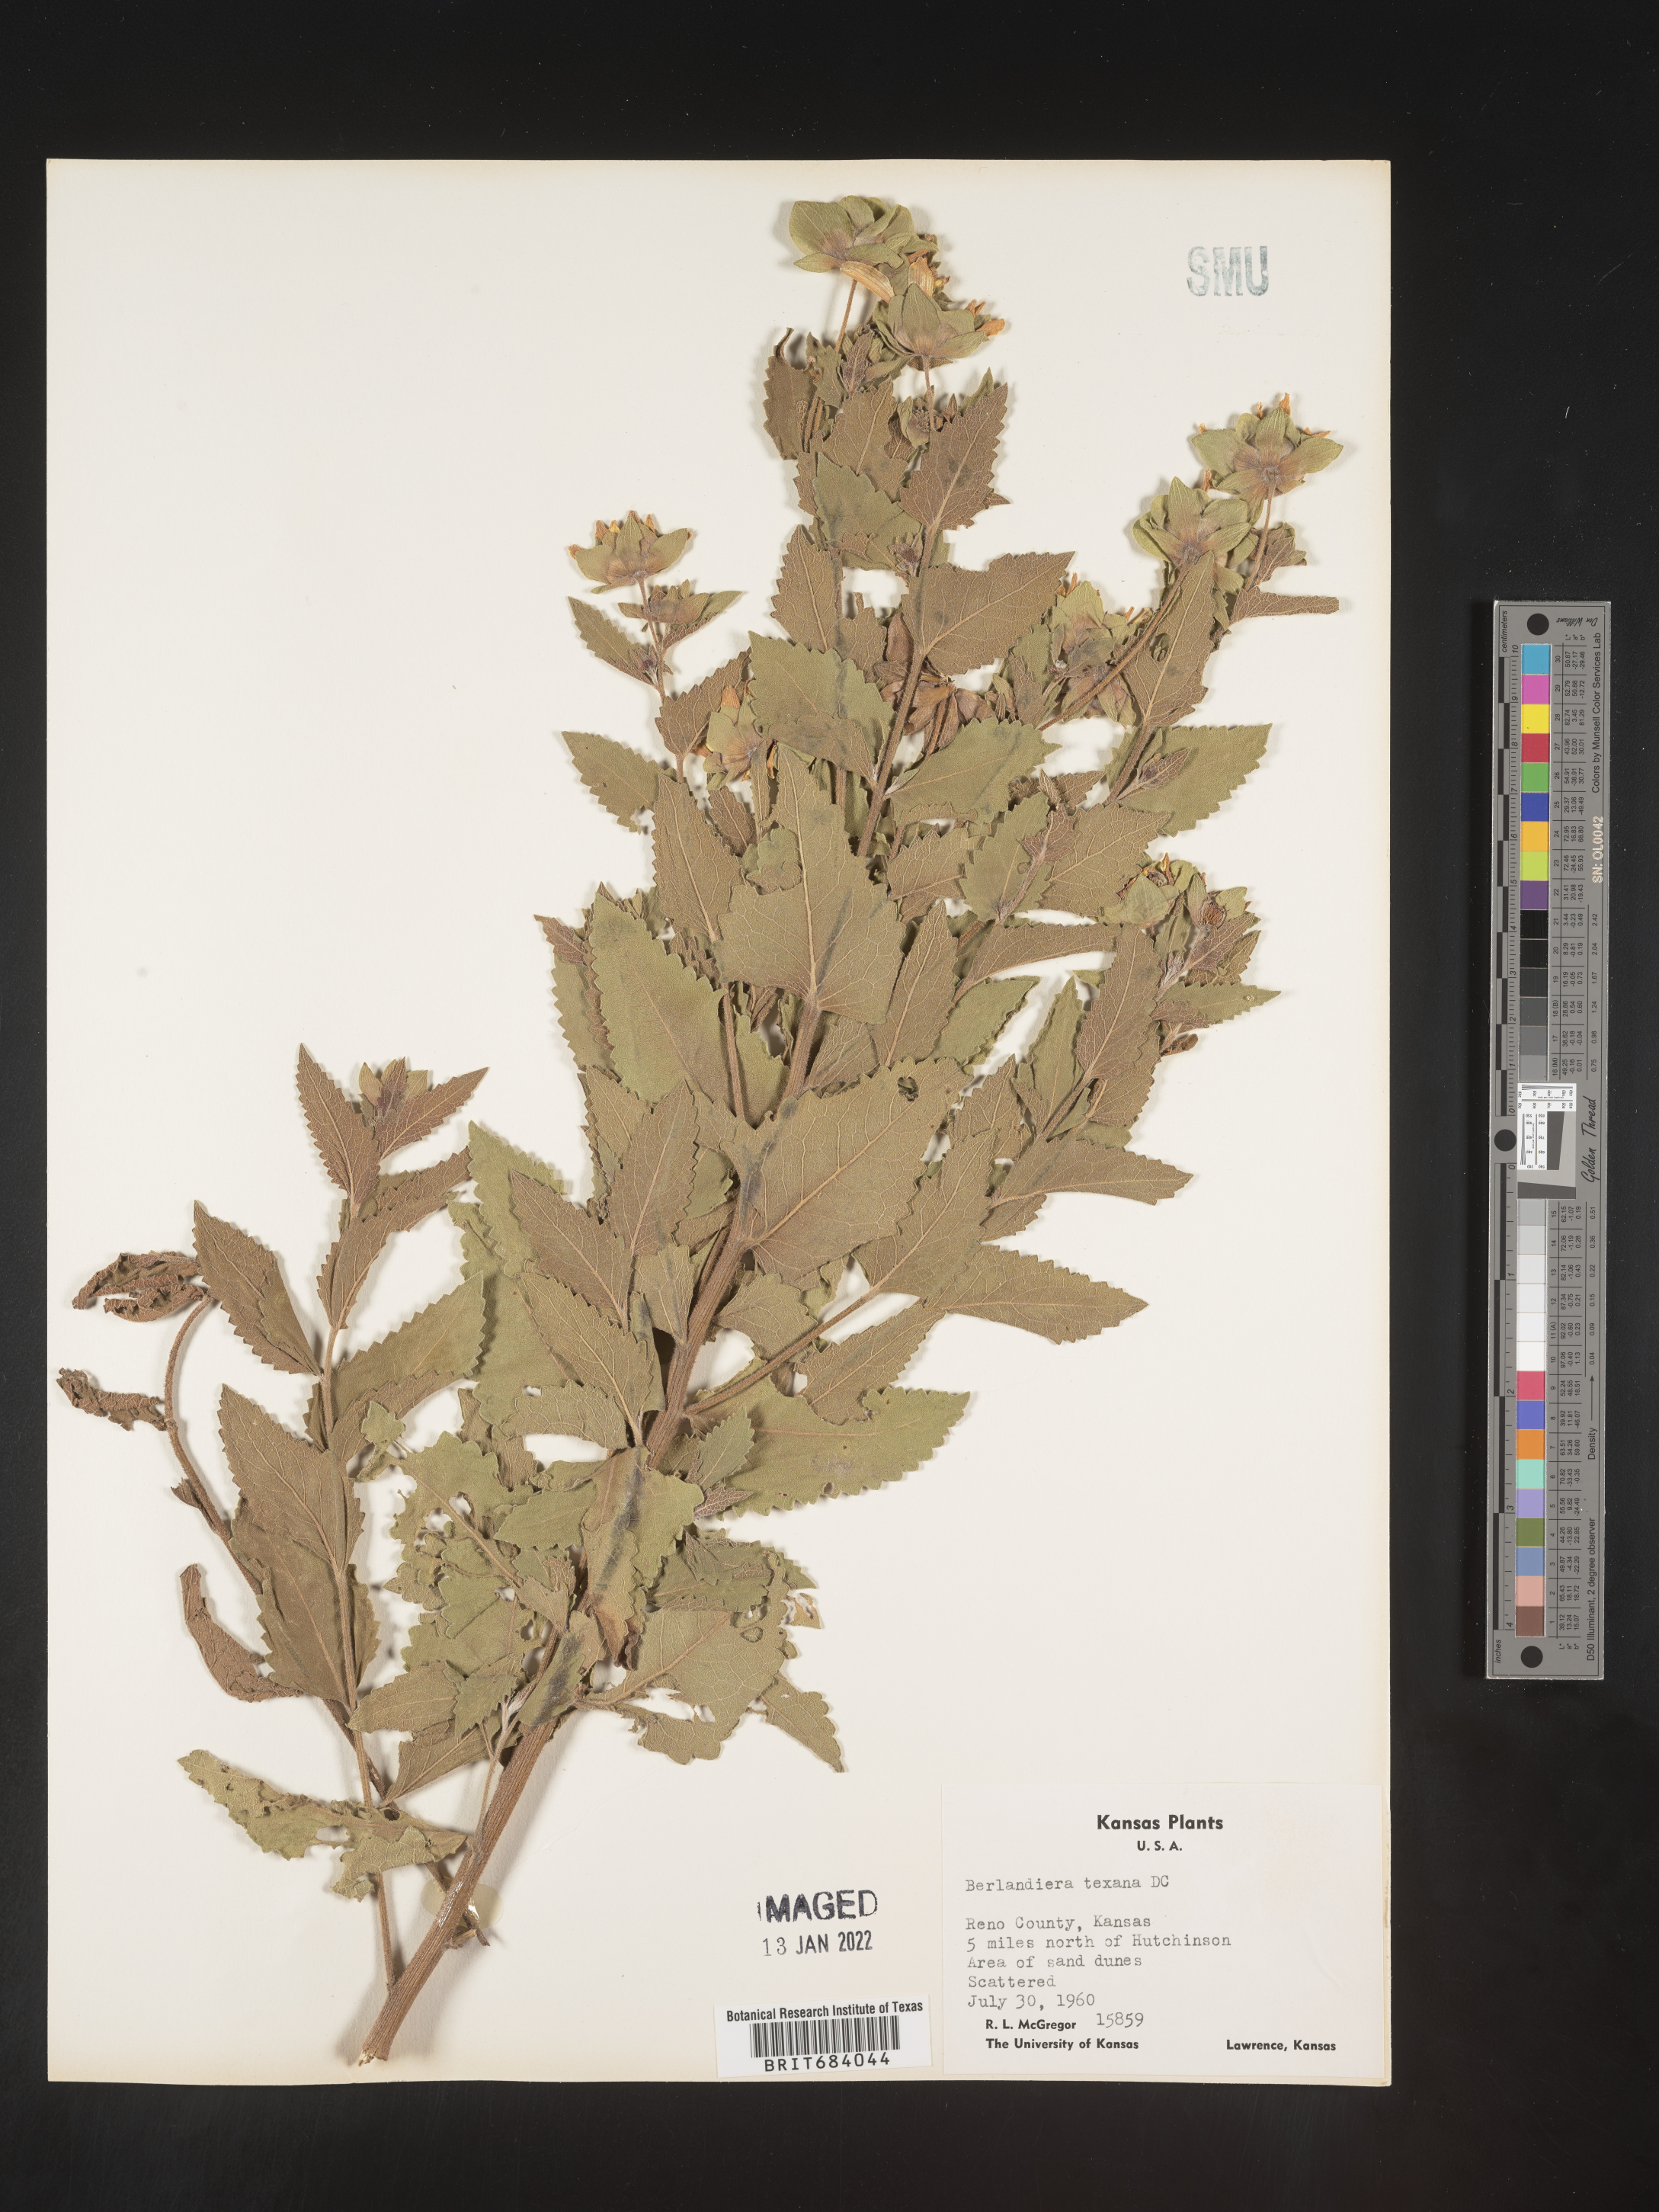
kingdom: Plantae
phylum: Tracheophyta
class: Magnoliopsida
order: Asterales
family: Asteraceae
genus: Berlandiera
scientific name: Berlandiera texana
